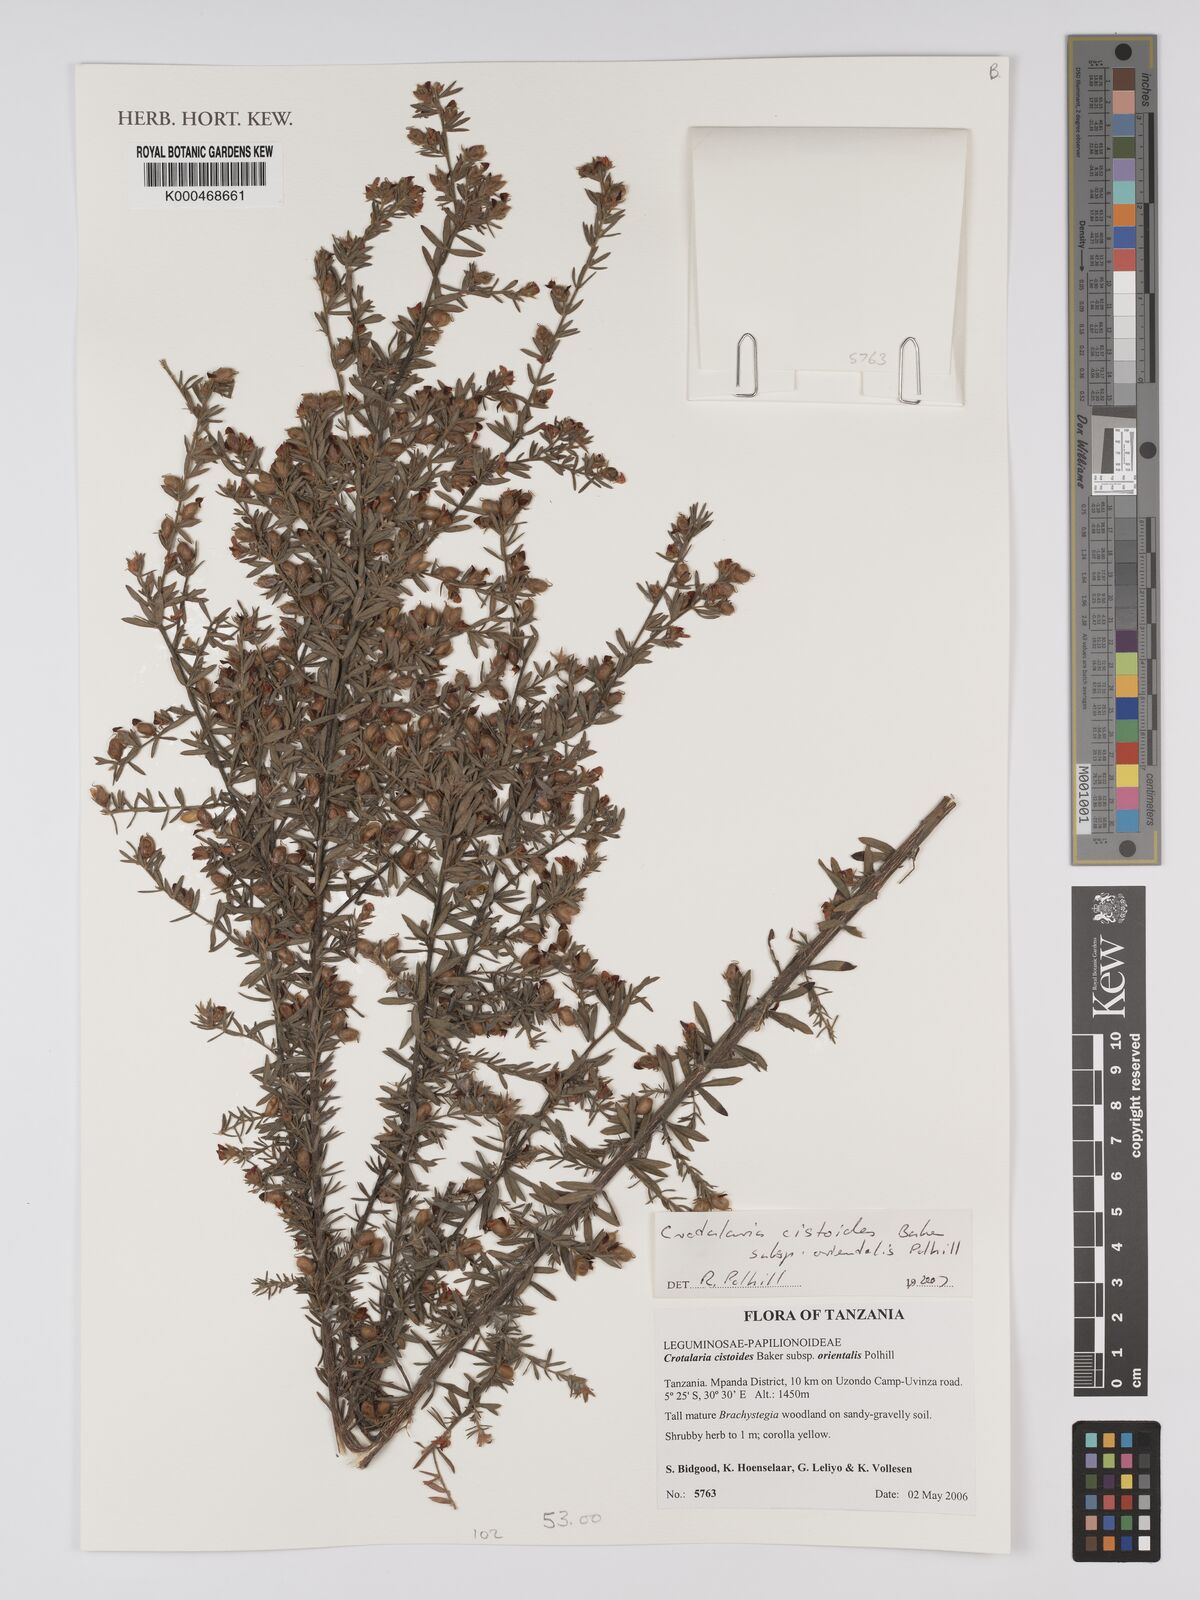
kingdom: Plantae
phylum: Tracheophyta
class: Magnoliopsida
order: Fabales
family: Fabaceae
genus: Crotalaria
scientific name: Crotalaria cistoides
